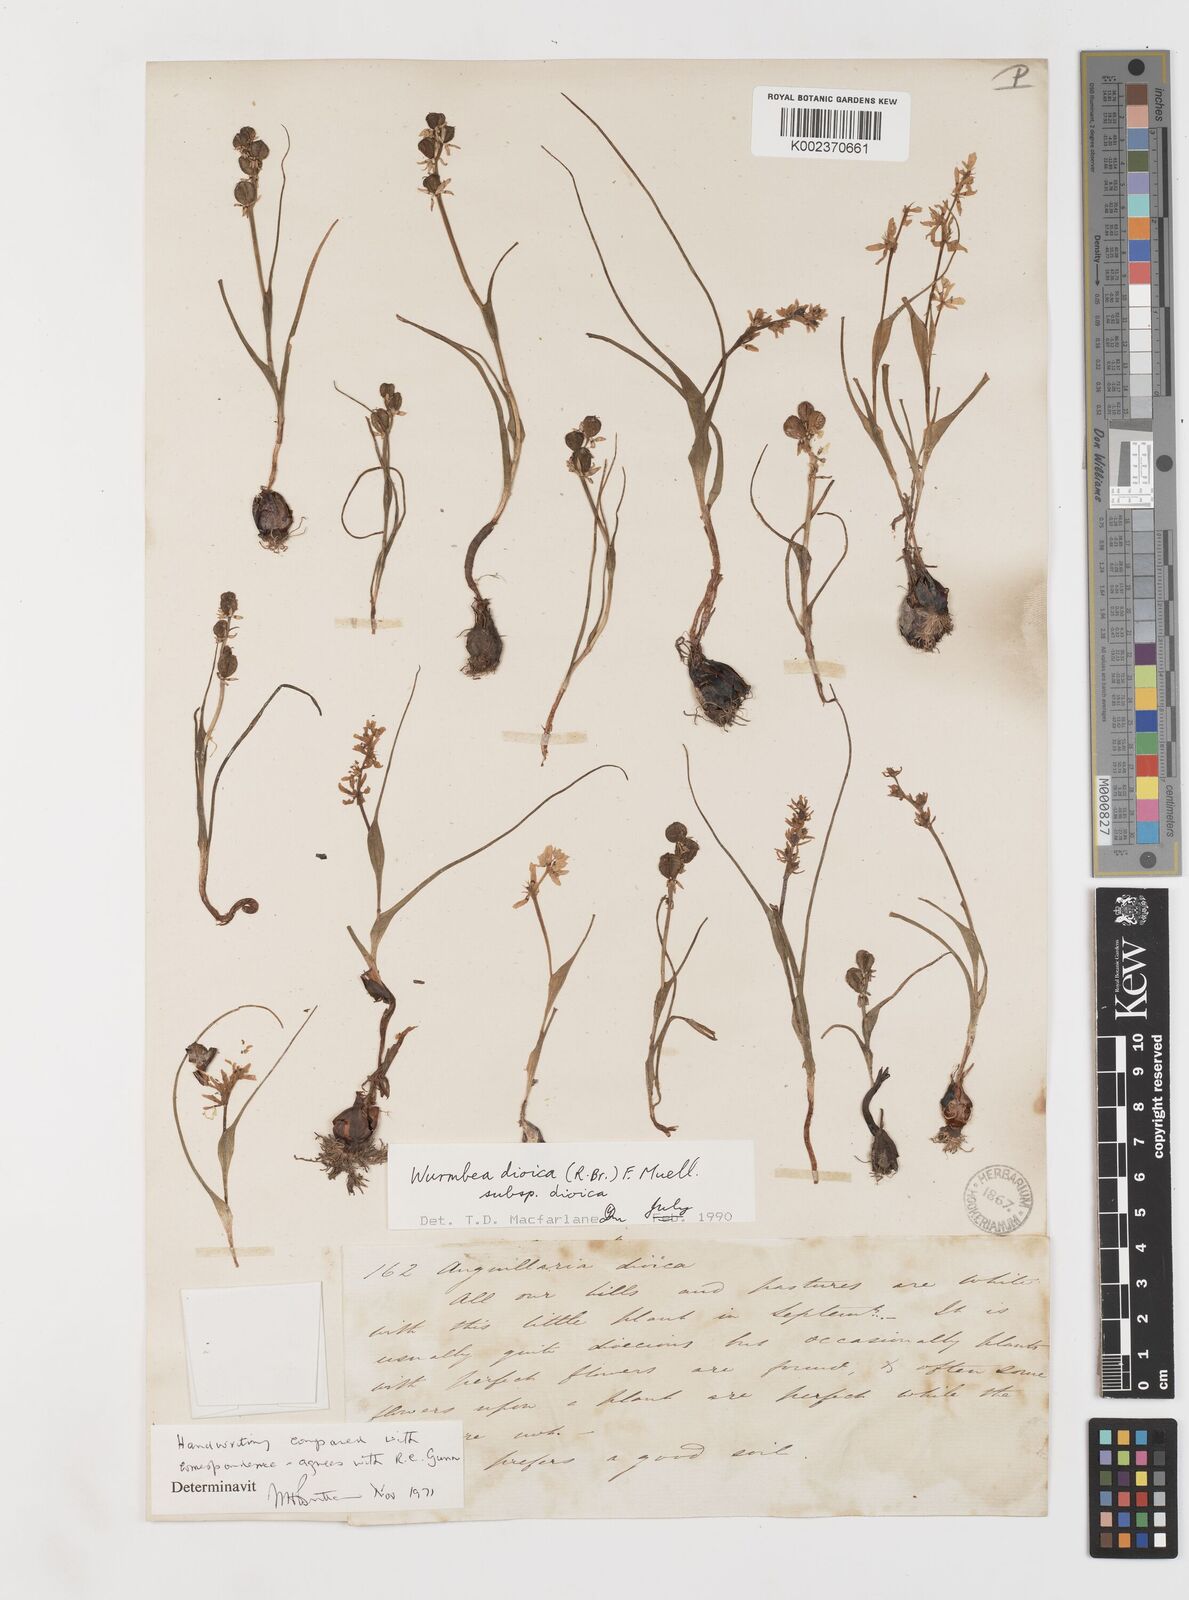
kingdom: Plantae
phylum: Tracheophyta
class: Liliopsida
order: Liliales
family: Colchicaceae
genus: Wurmbea
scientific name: Wurmbea dioica
